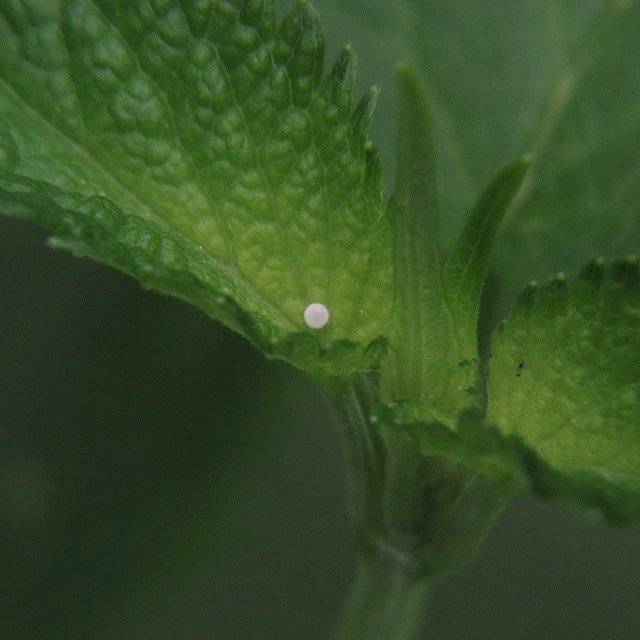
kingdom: Animalia
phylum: Arthropoda
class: Insecta
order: Lepidoptera
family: Lycaenidae
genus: Celastrina
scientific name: Celastrina
